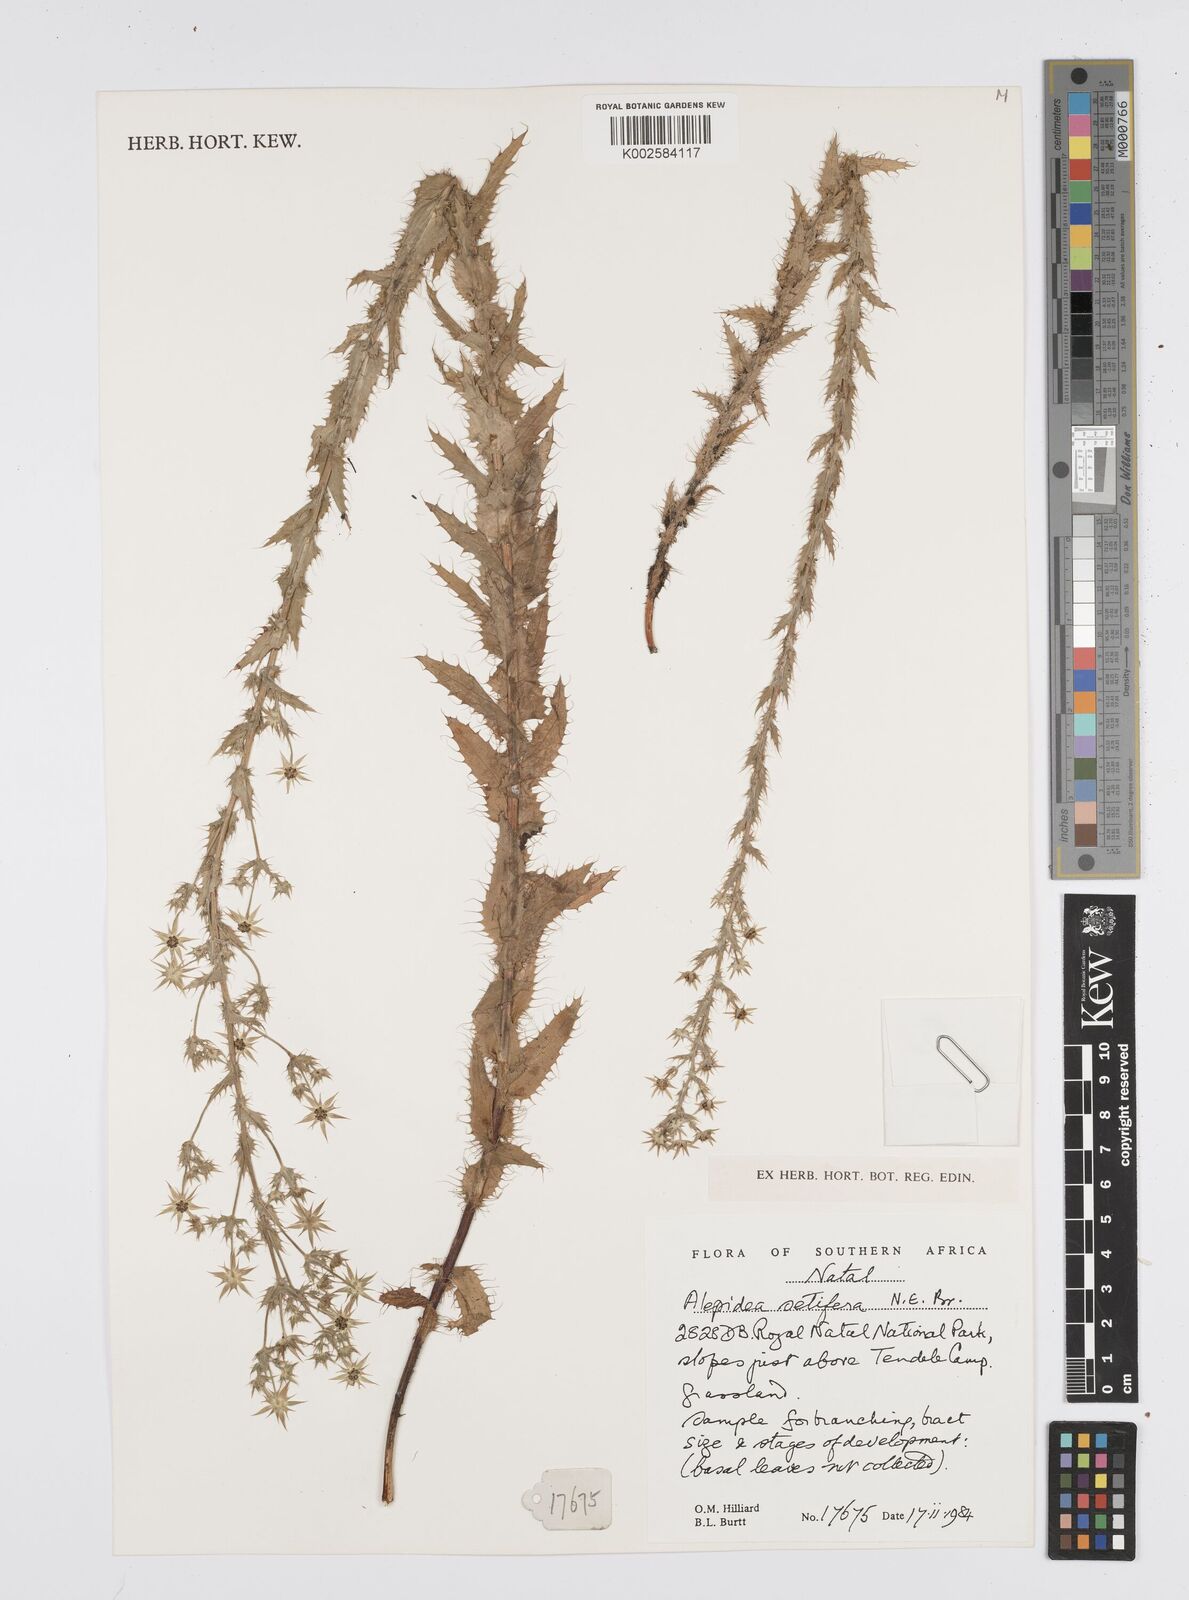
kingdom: Plantae
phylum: Tracheophyta
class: Magnoliopsida
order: Apiales
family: Apiaceae
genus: Alepidea
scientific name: Alepidea setifera
